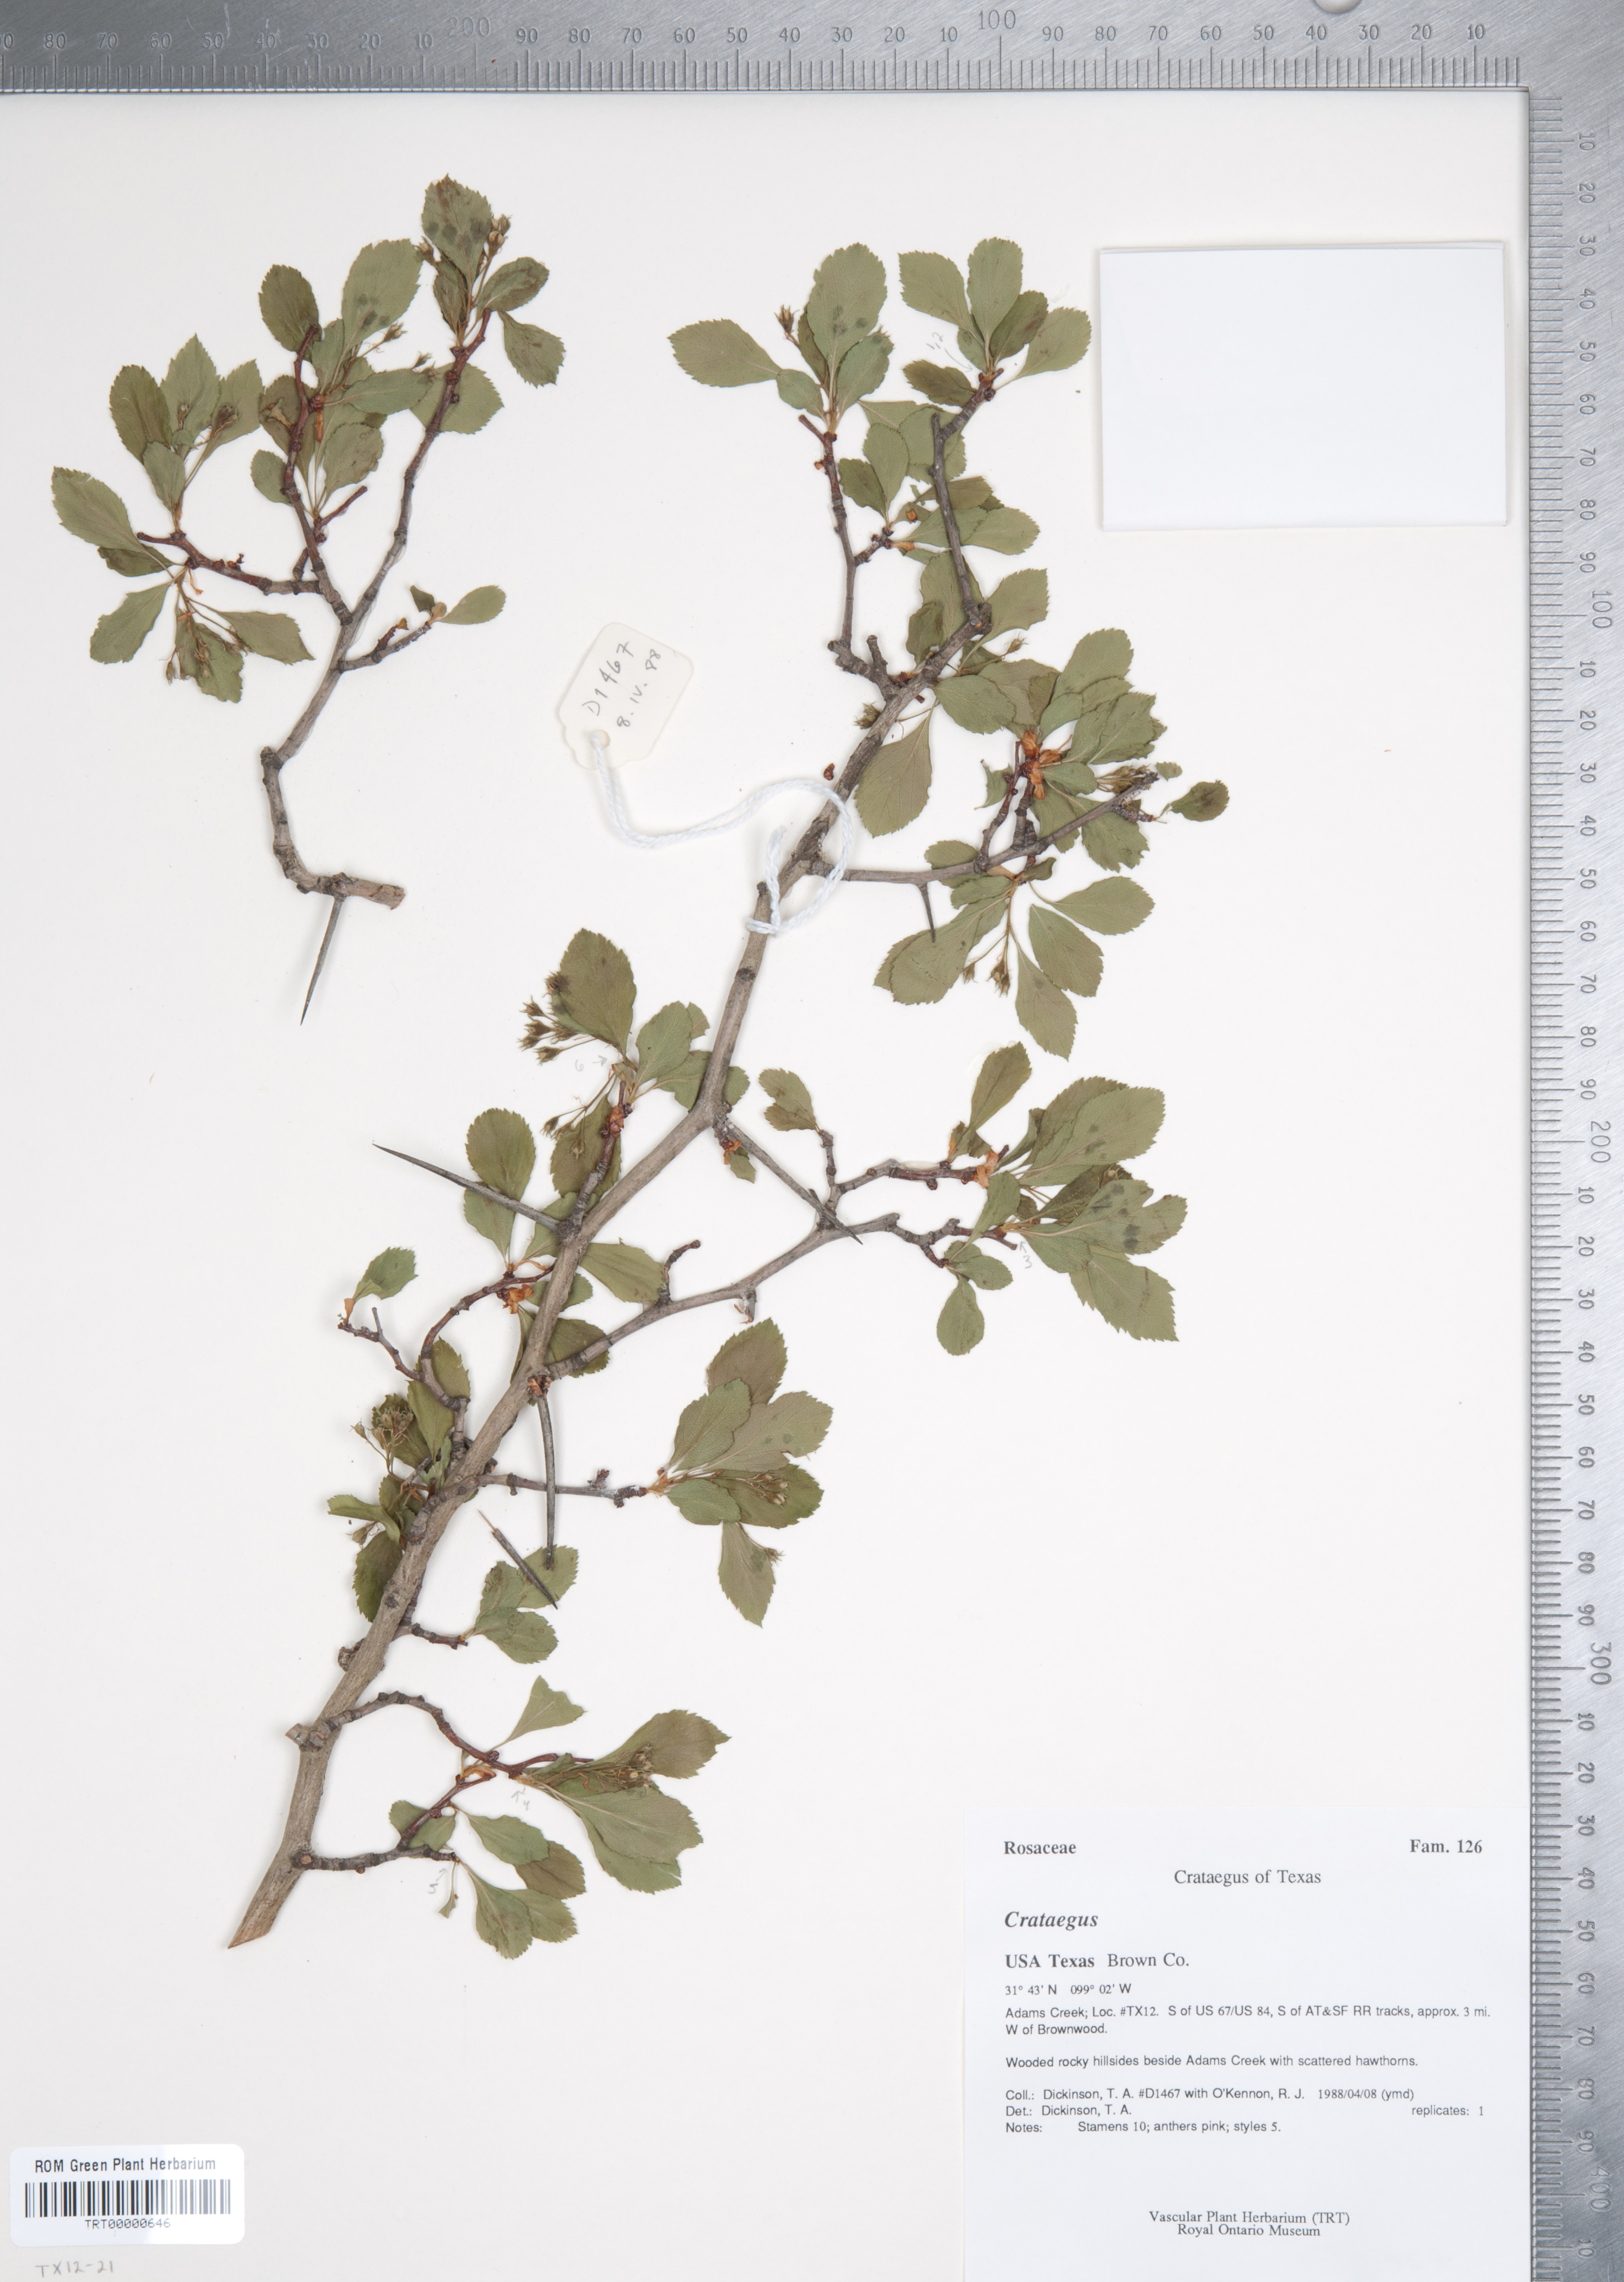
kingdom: Plantae
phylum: Tracheophyta
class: Magnoliopsida
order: Rosales
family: Rosaceae
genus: Crataegus
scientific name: Crataegus crus-galli
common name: Cockspurthorn
